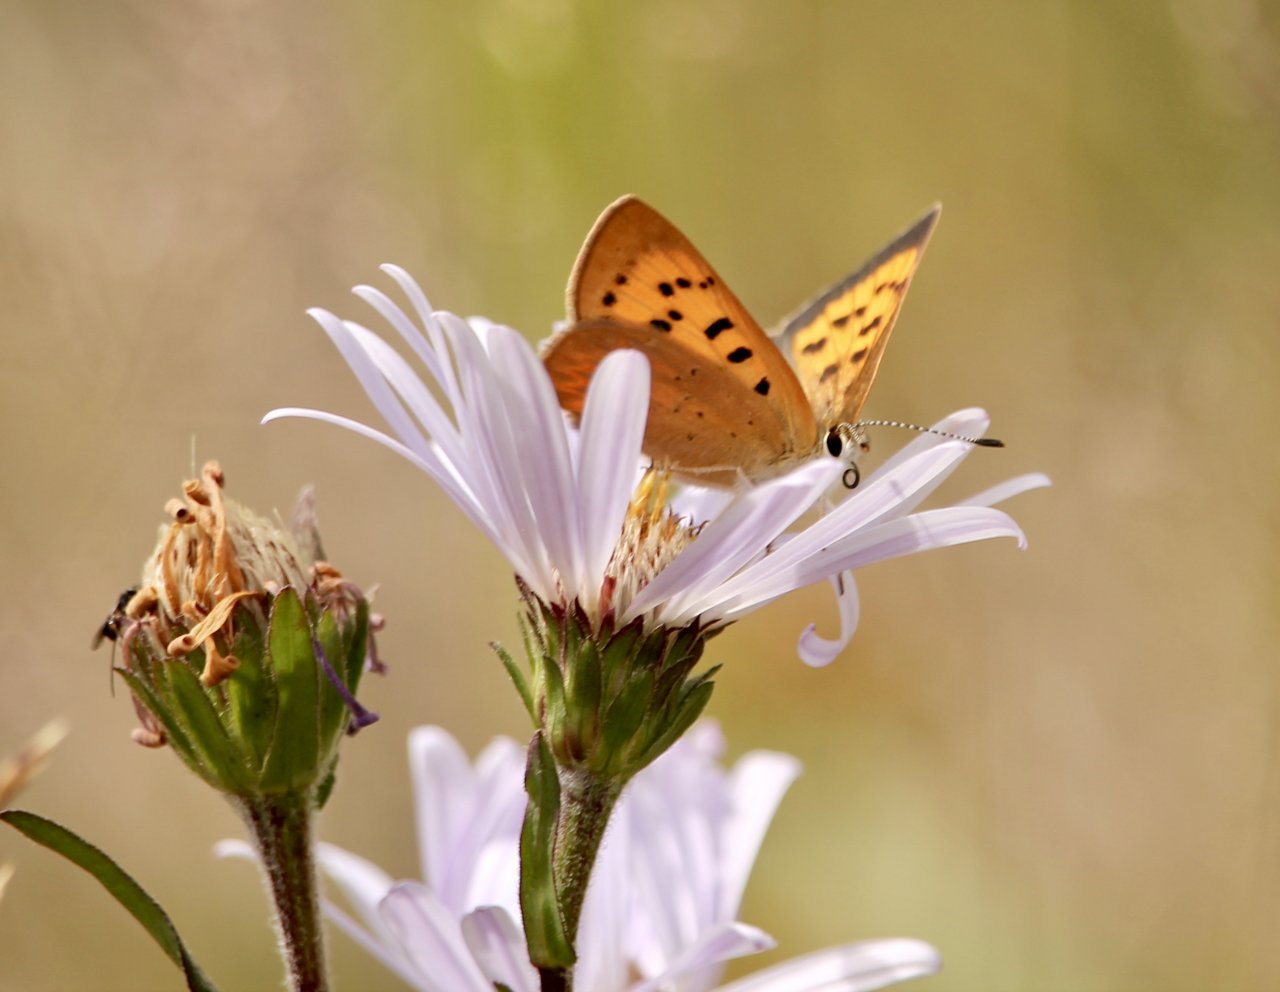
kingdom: Animalia
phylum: Arthropoda
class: Insecta
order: Lepidoptera
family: Sesiidae
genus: Sesia
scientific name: Sesia Lycaena helloides
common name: Purplish Copper
